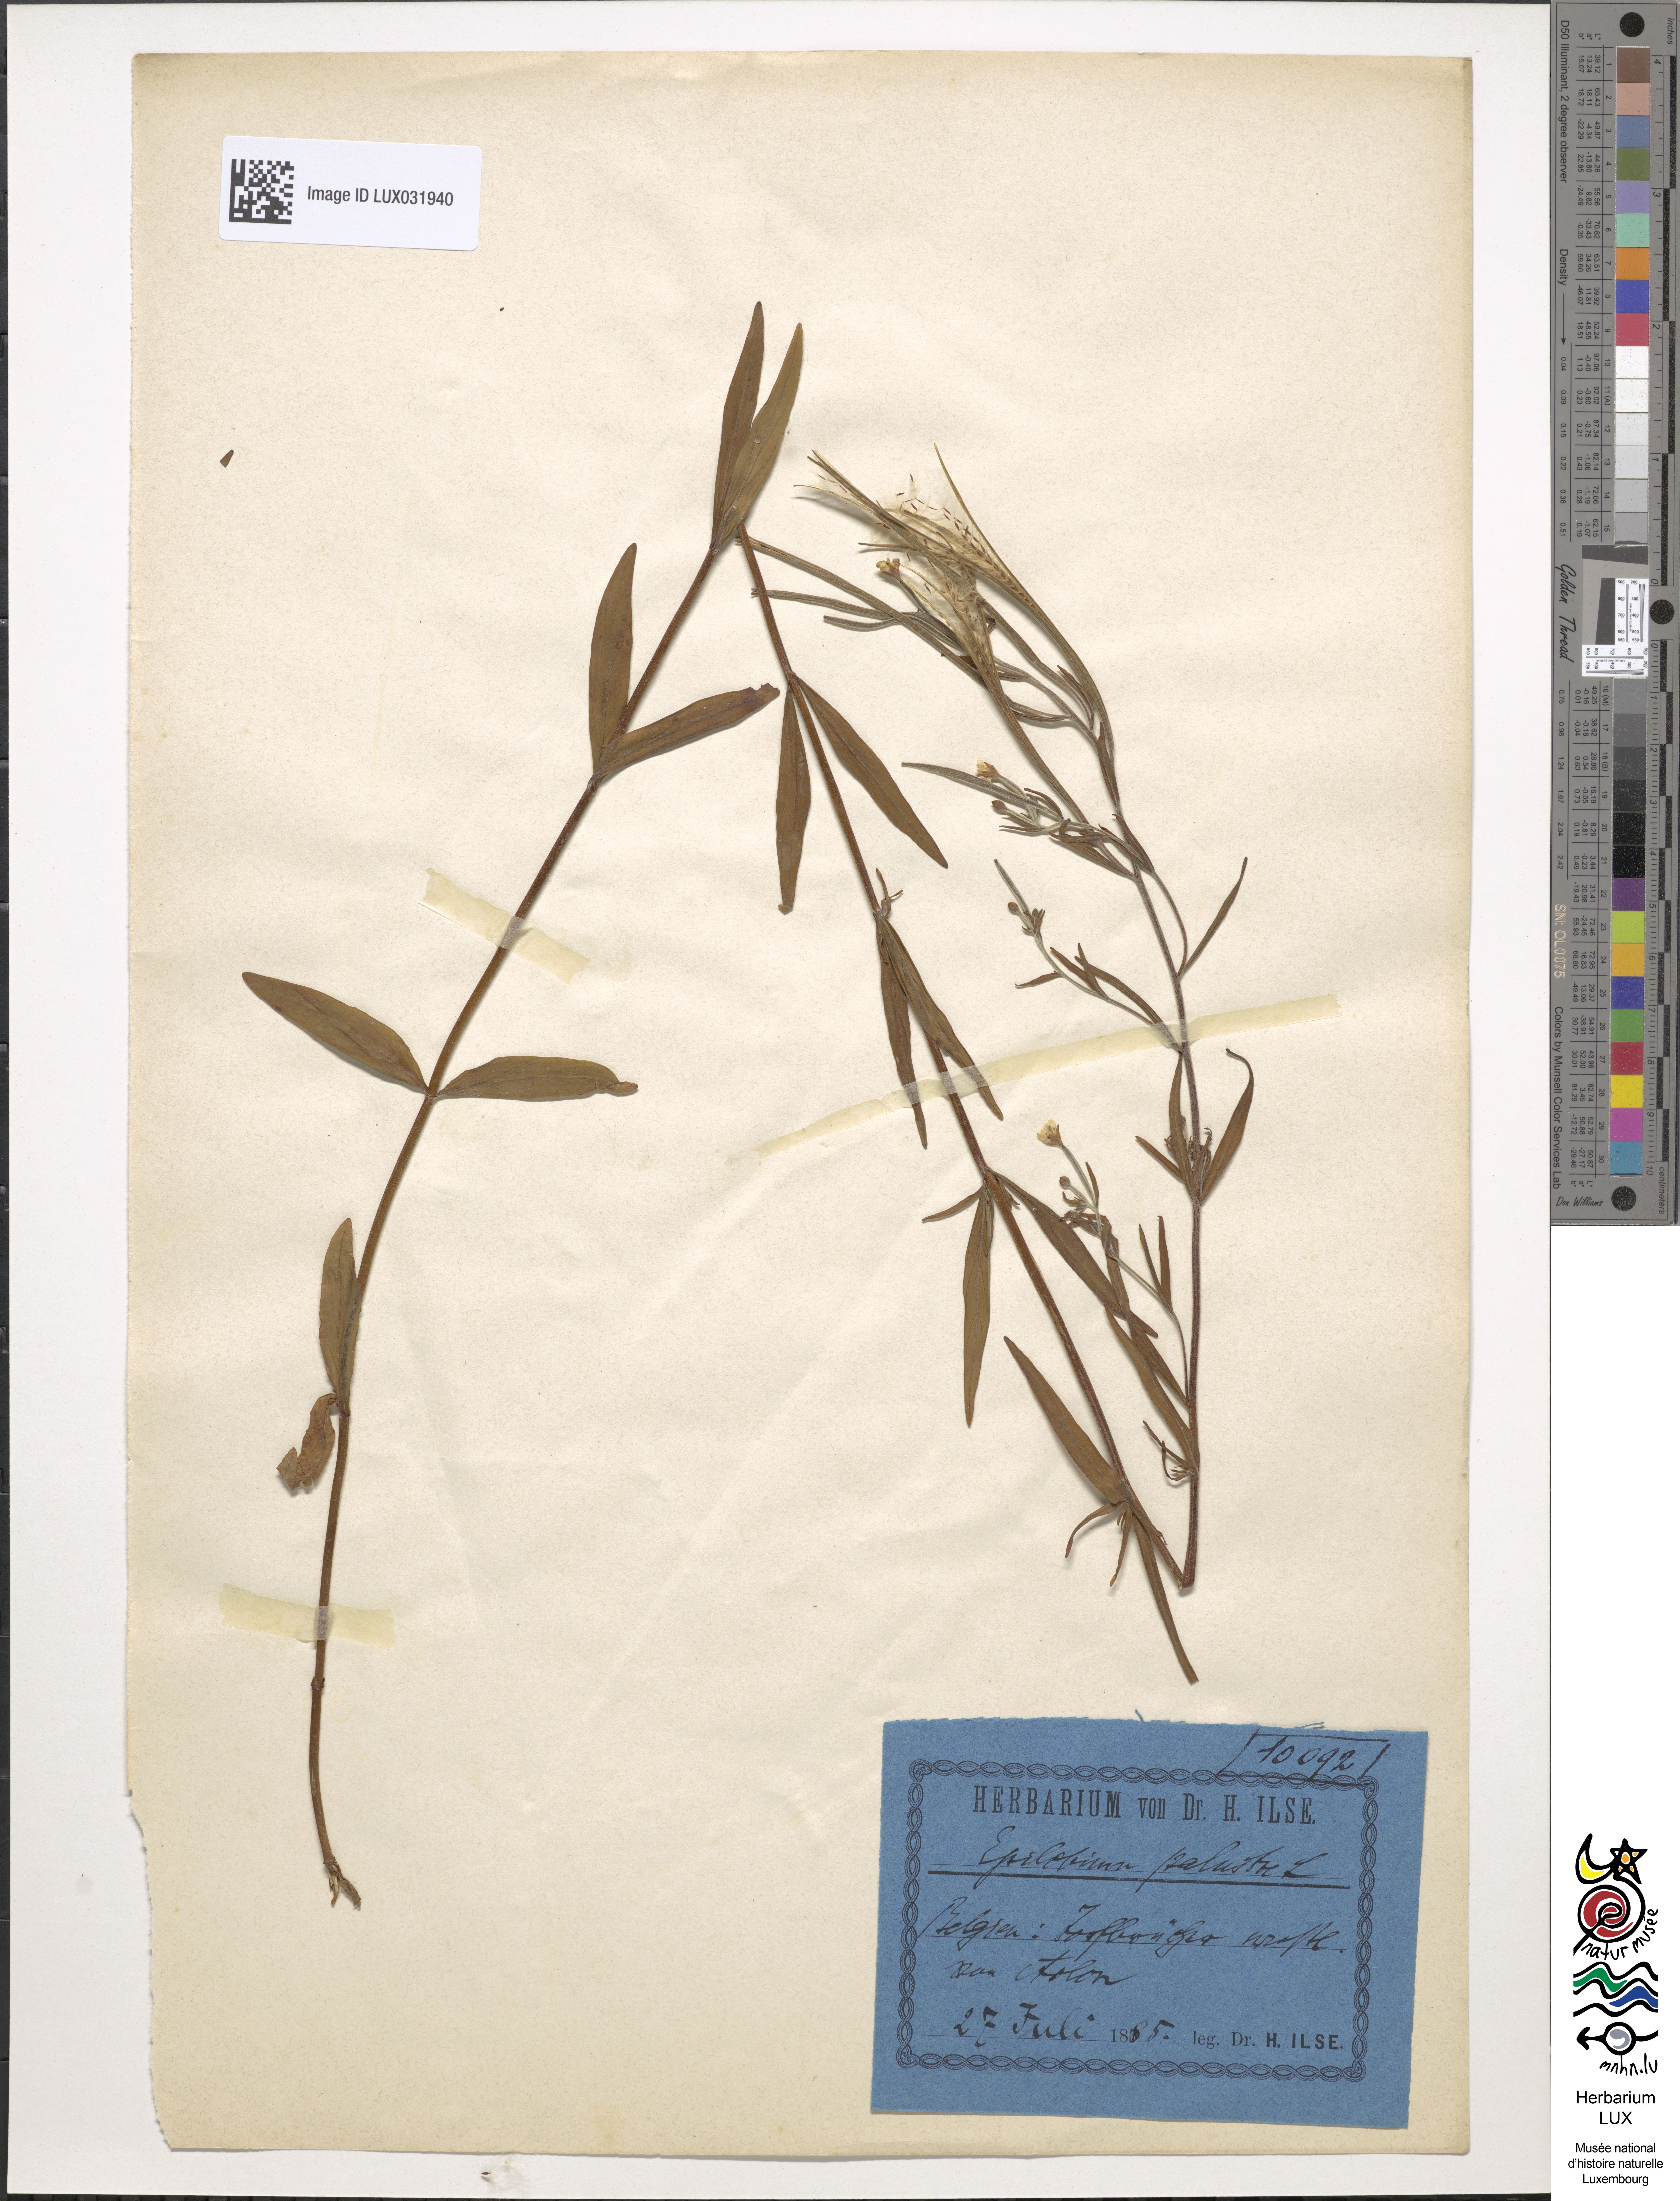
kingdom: Plantae
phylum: Tracheophyta
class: Magnoliopsida
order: Myrtales
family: Onagraceae
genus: Epilobium
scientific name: Epilobium palustre
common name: Marsh willowherb
